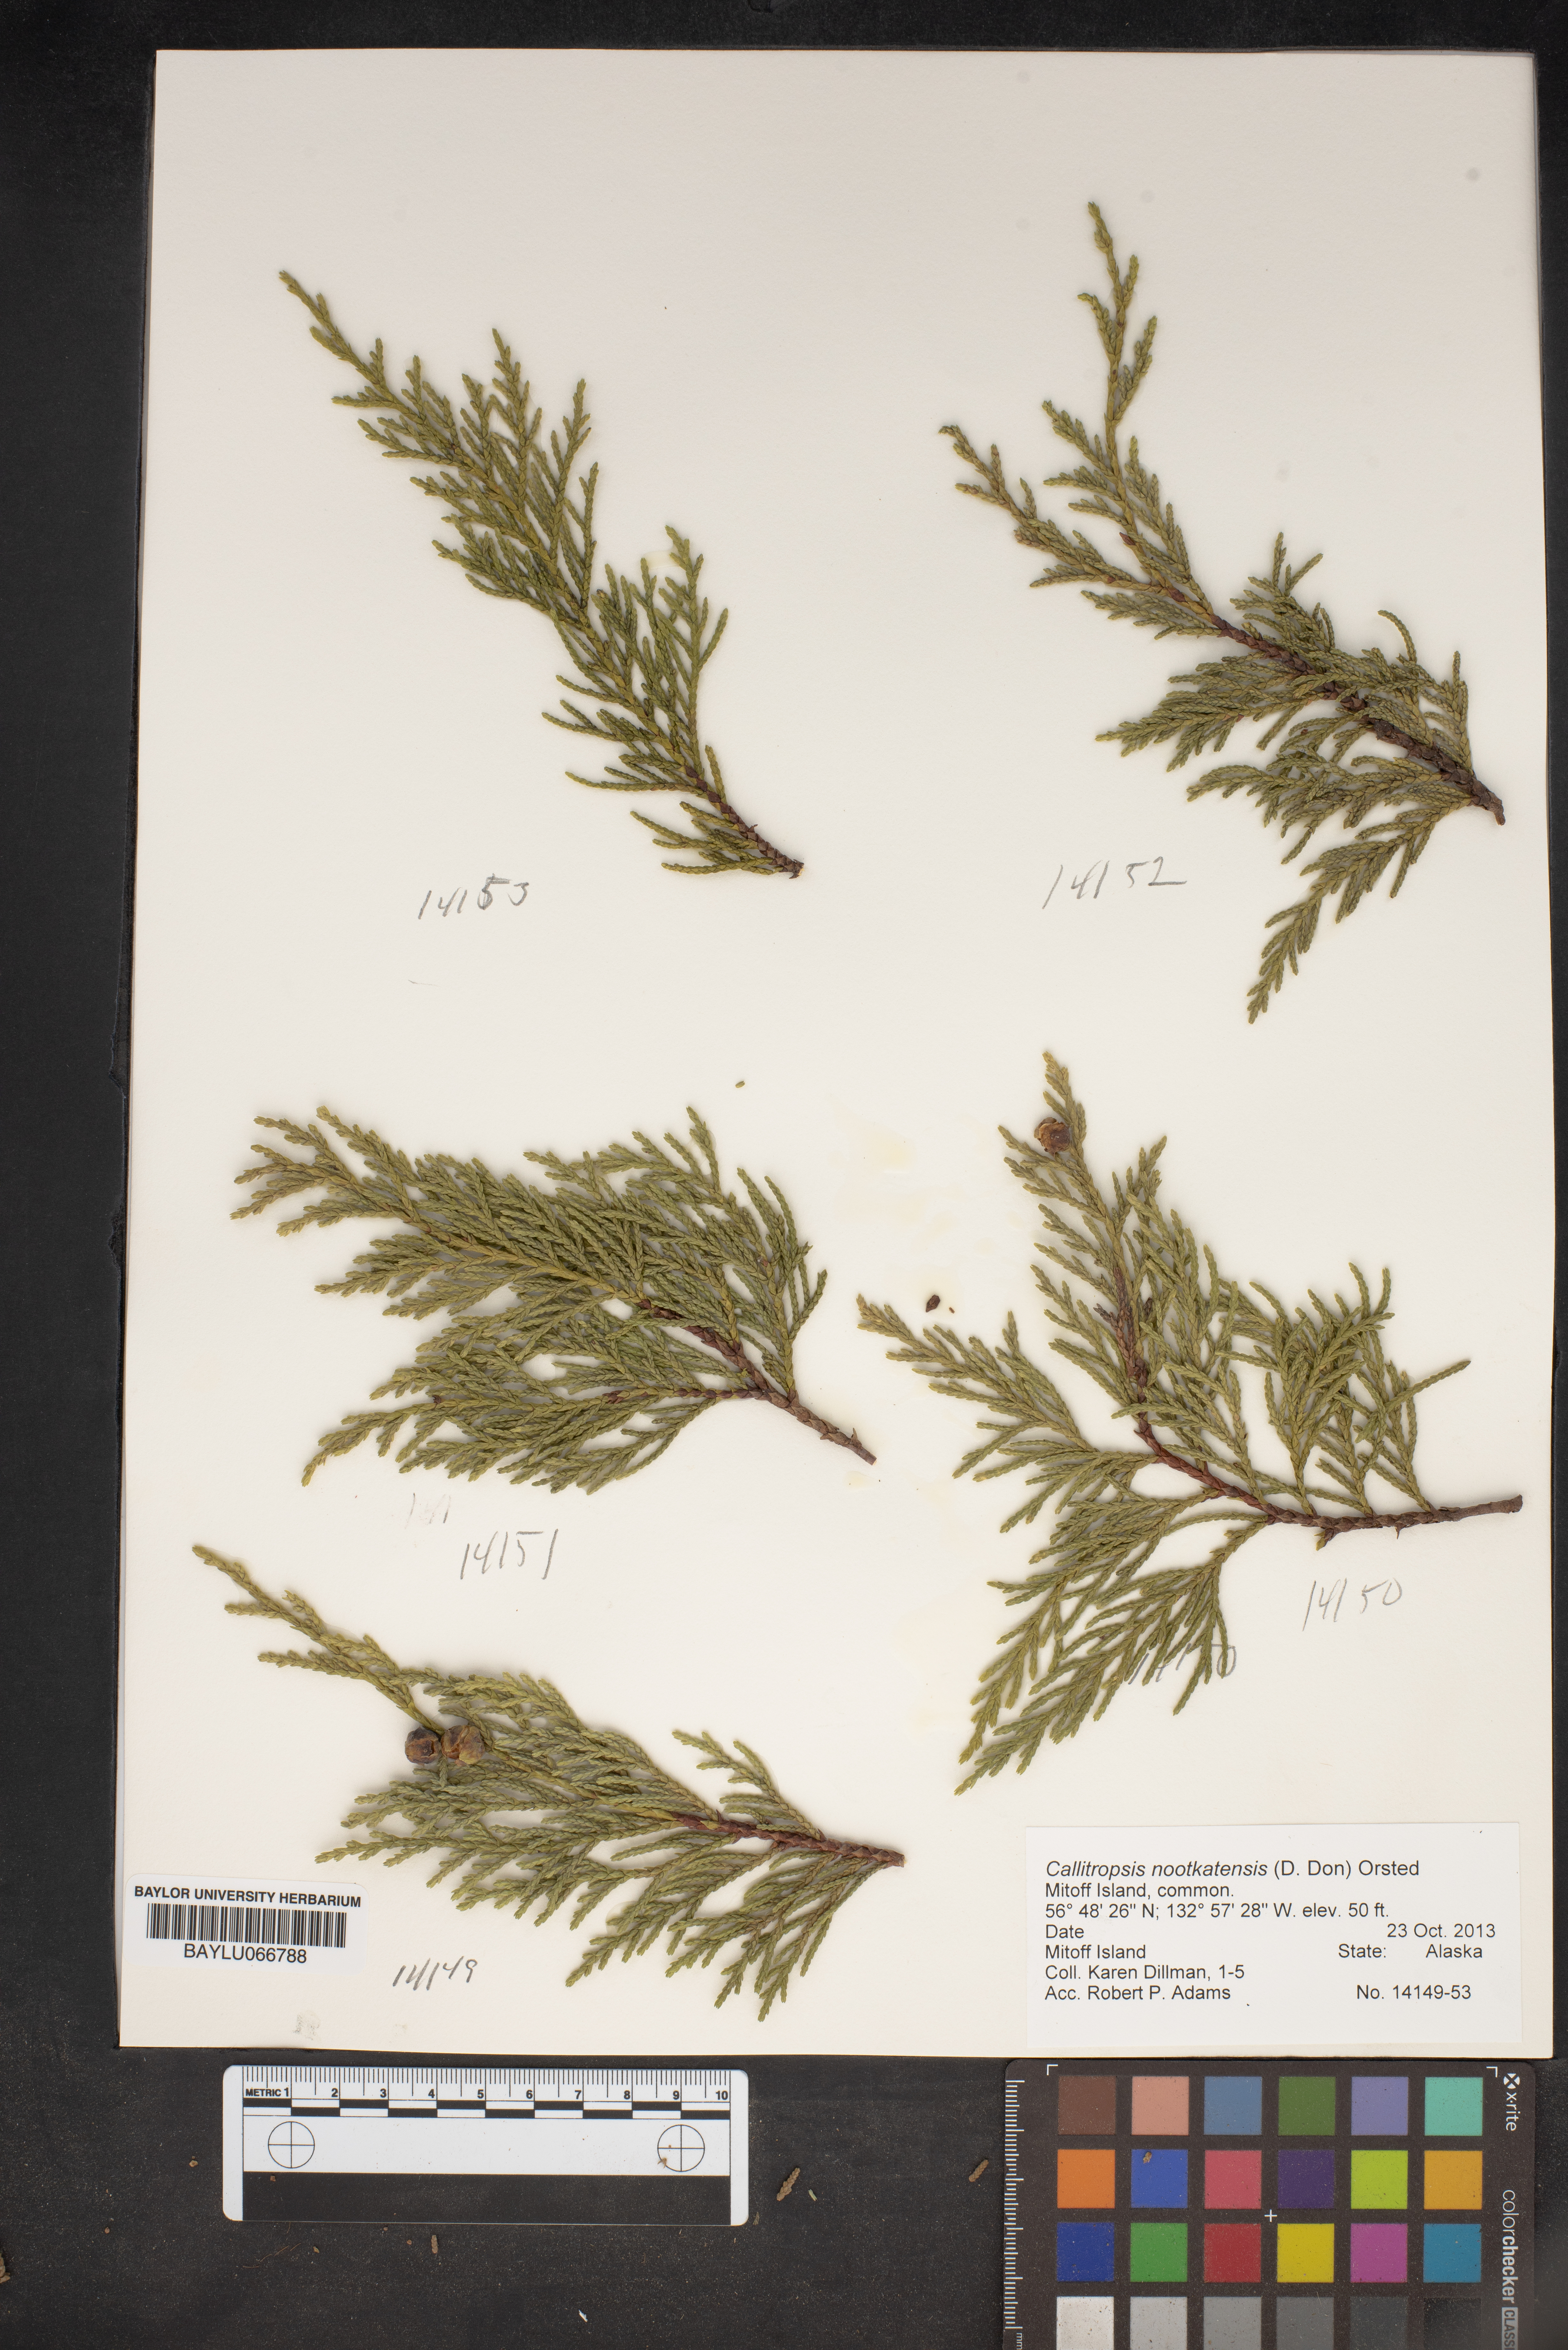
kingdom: Plantae
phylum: Tracheophyta
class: Pinopsida
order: Pinales
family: Cupressaceae
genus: Xanthocyparis
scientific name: Xanthocyparis nootkatensis
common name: Nootka cypress
